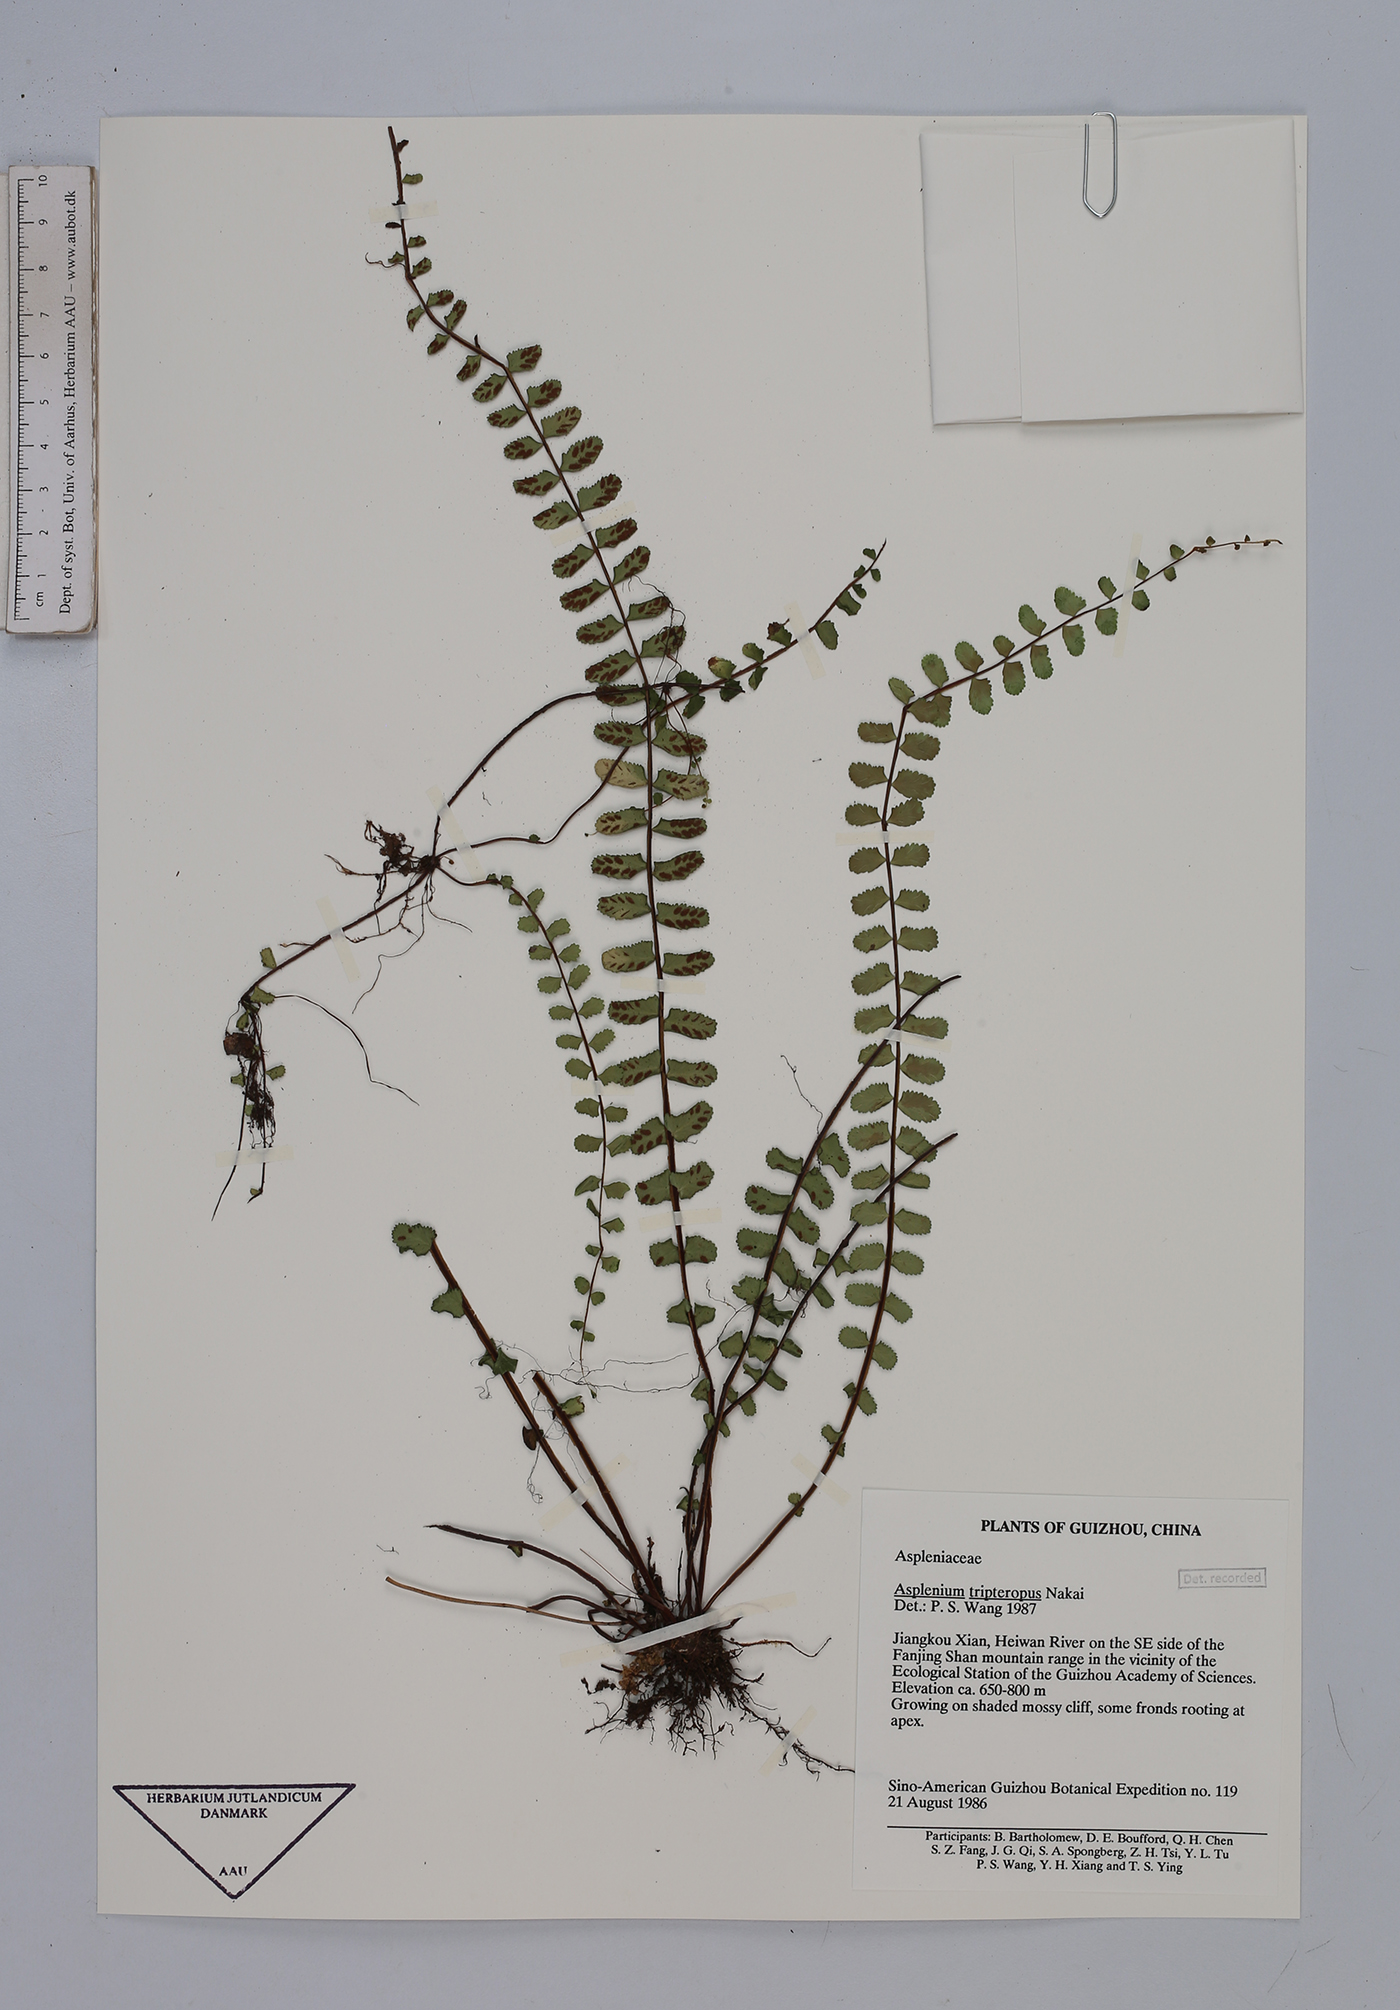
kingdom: Plantae
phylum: Tracheophyta
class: Polypodiopsida
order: Polypodiales
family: Aspleniaceae
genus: Asplenium
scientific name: Asplenium tripteropus
